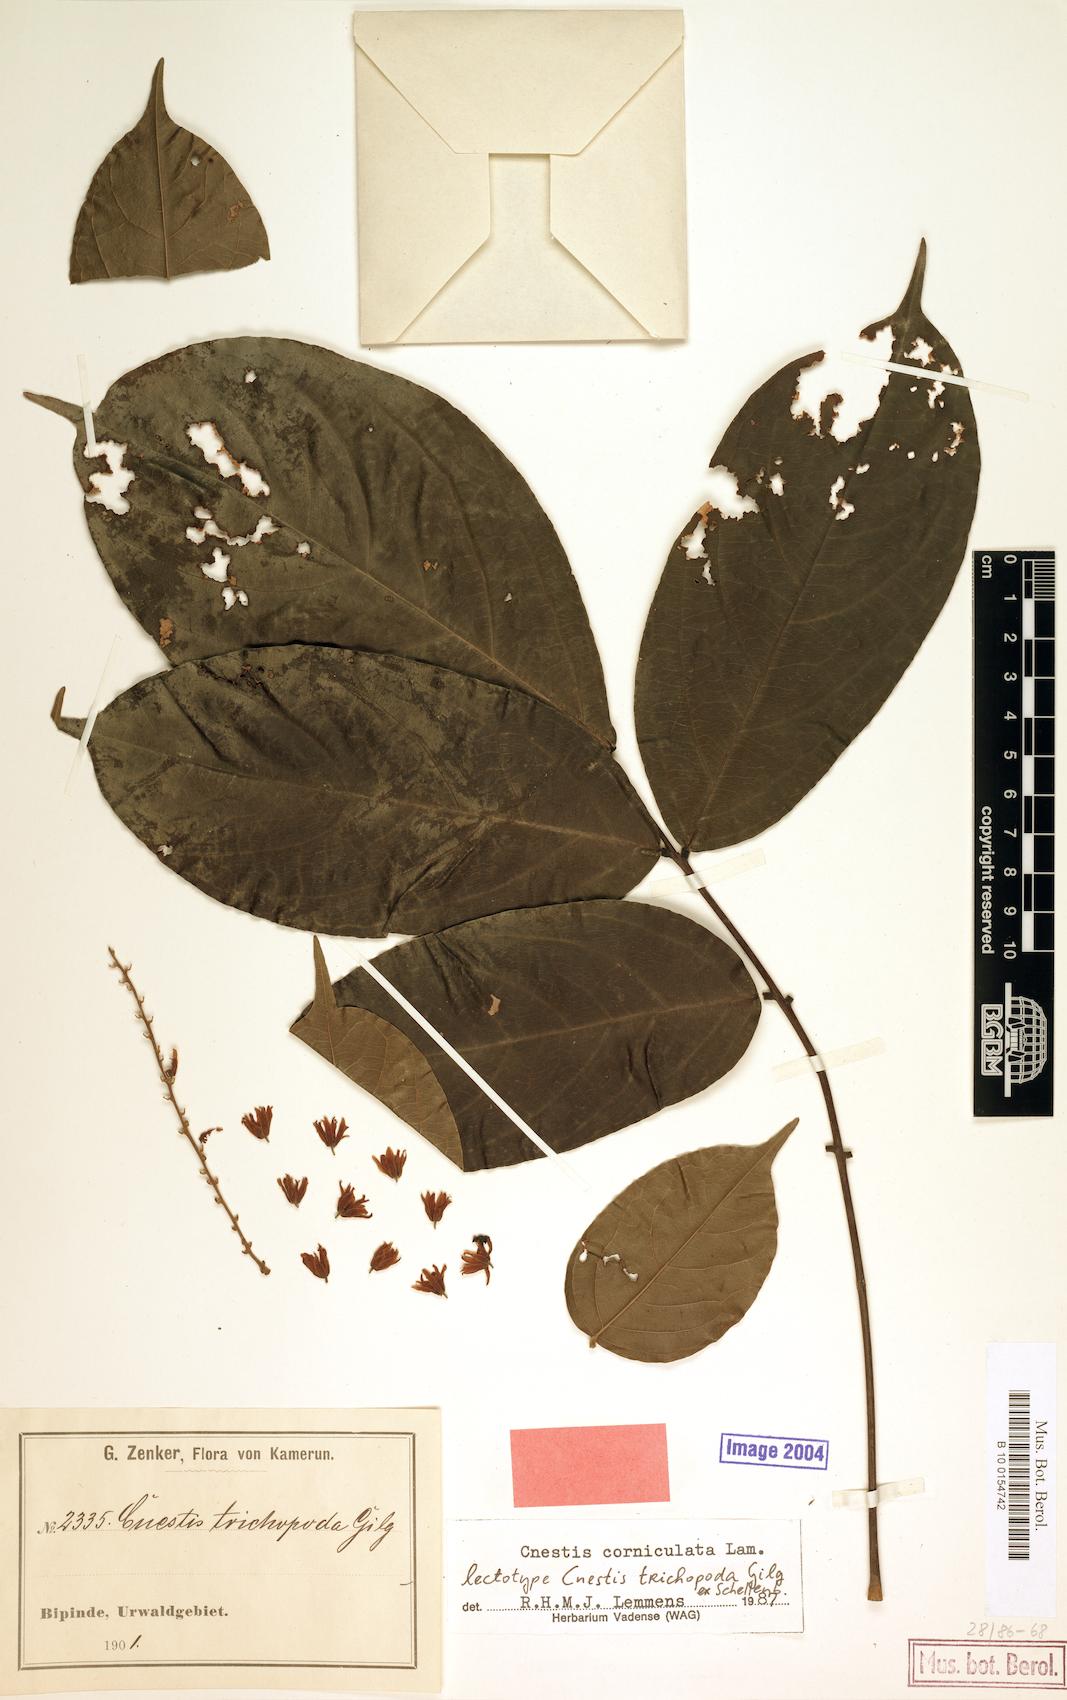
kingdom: Plantae
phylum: Tracheophyta
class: Magnoliopsida
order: Oxalidales
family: Connaraceae
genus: Cnestis
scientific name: Cnestis corniculata
